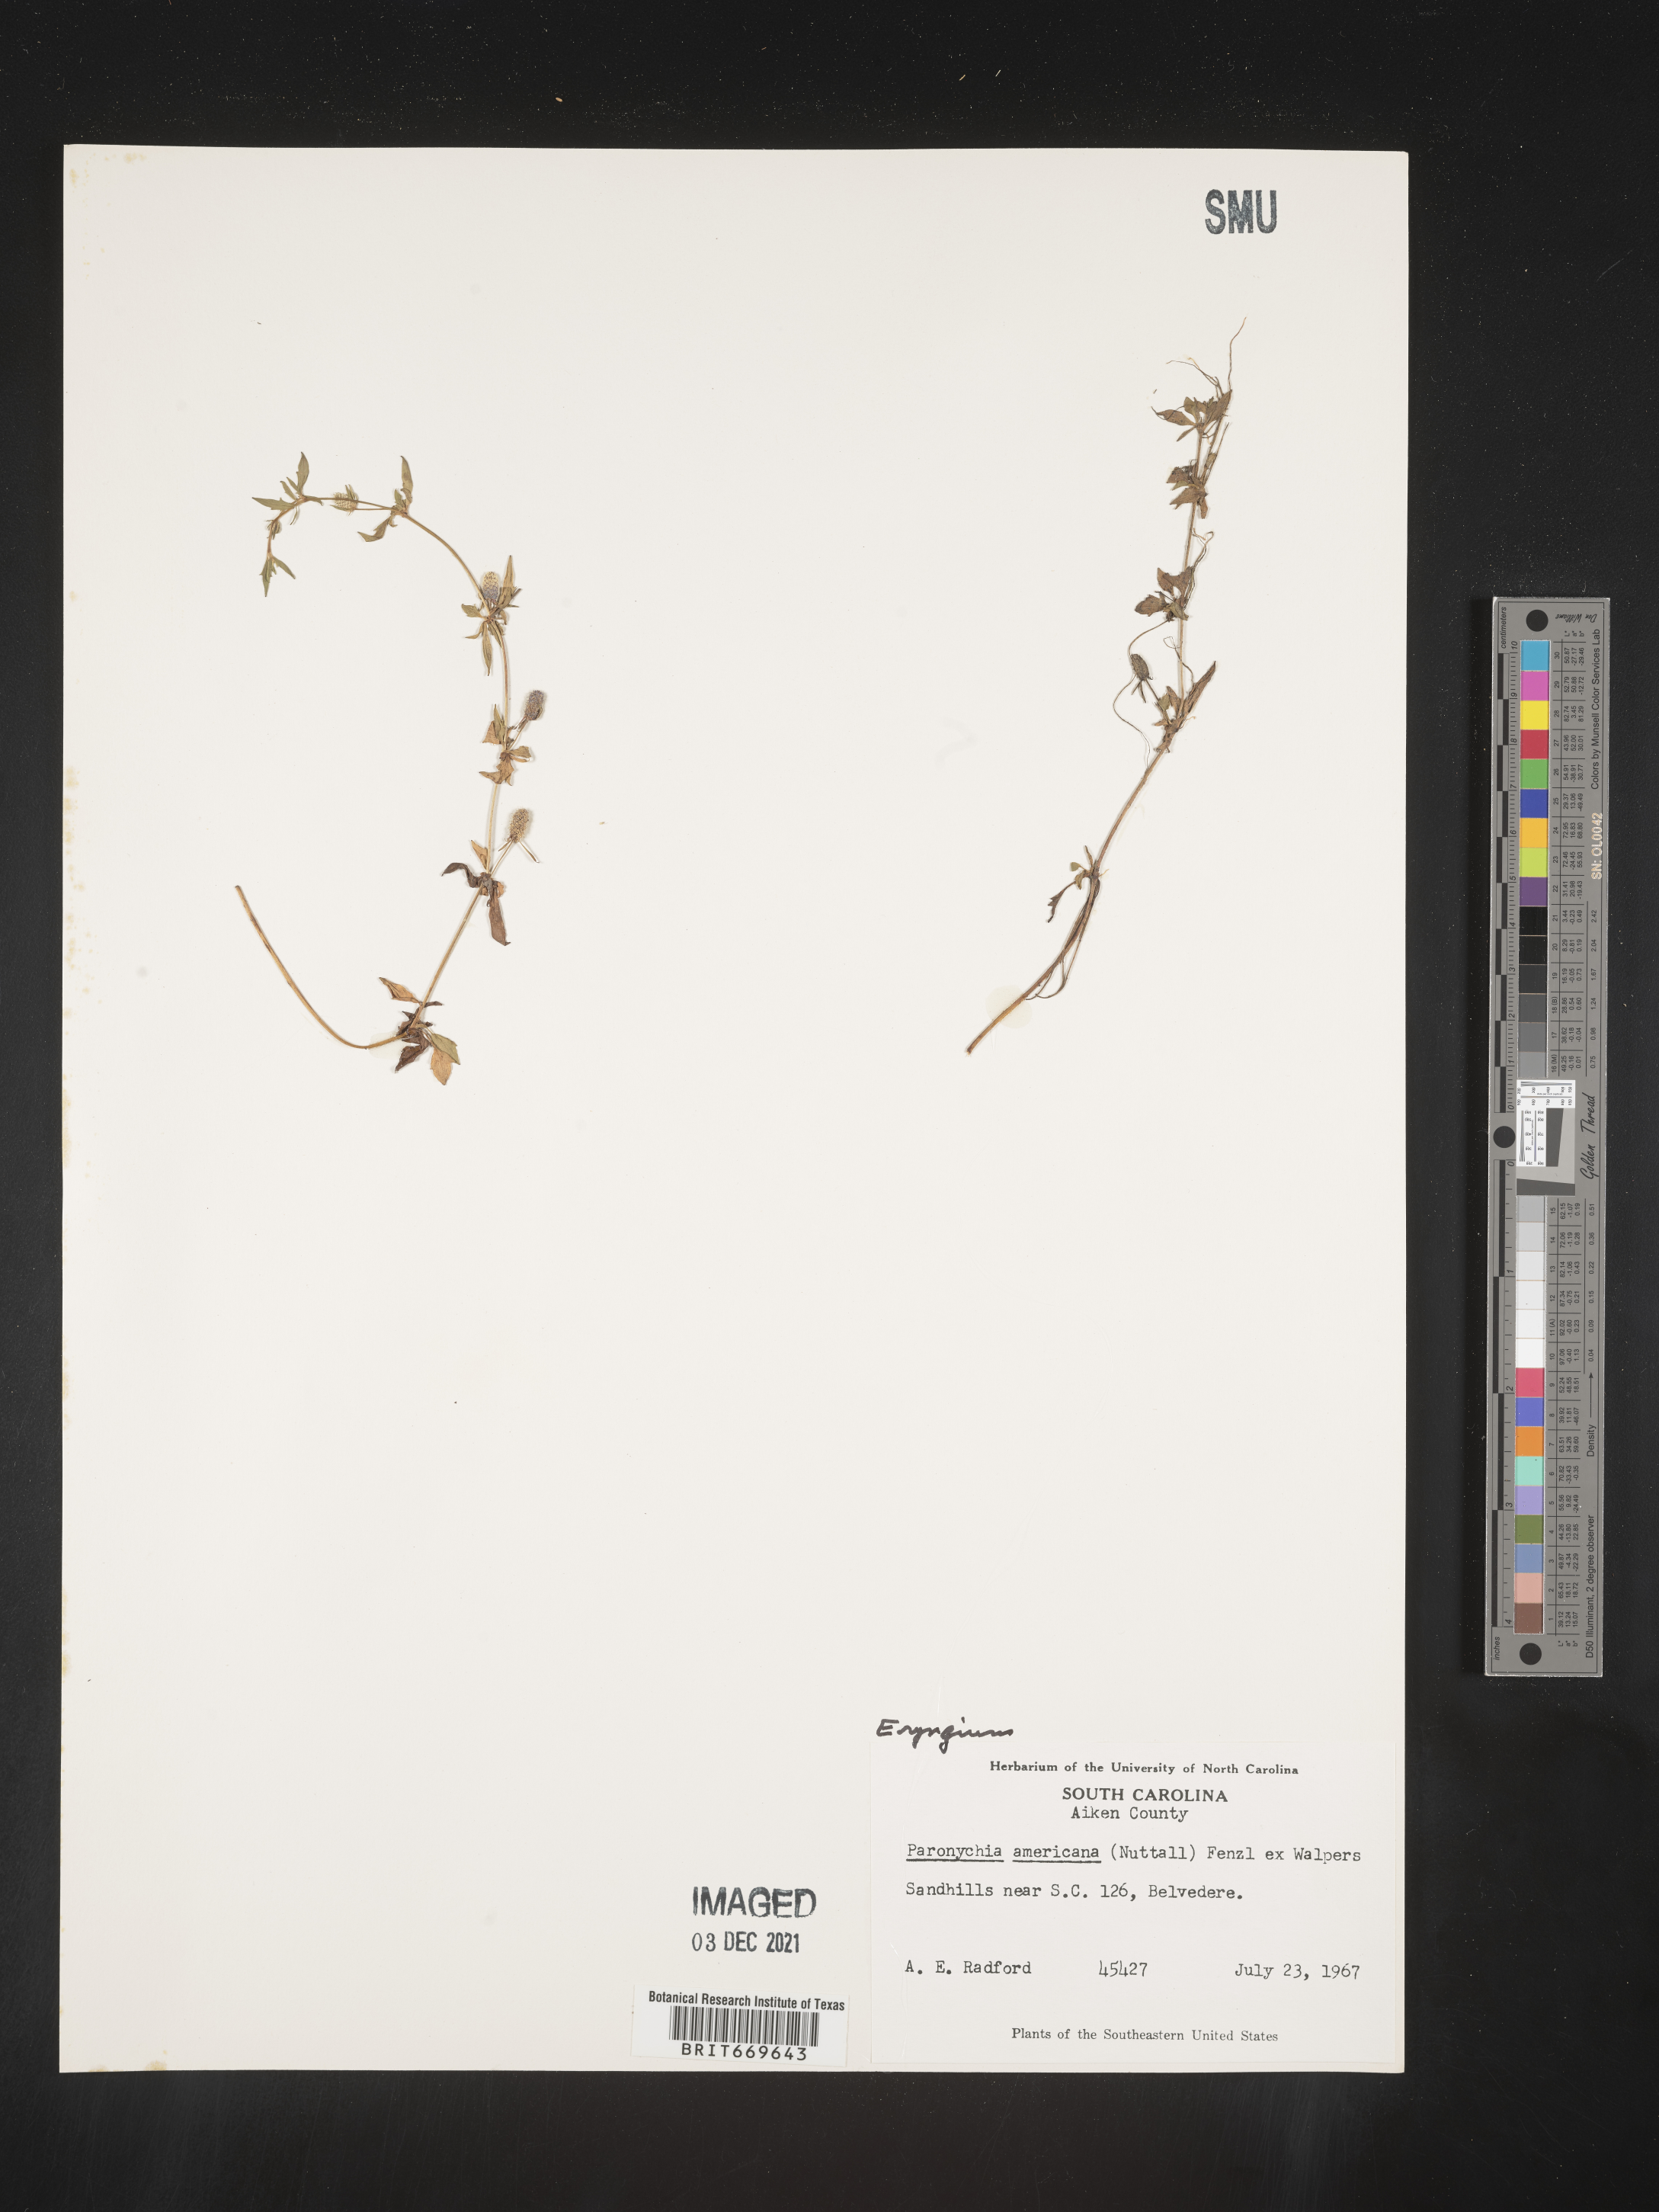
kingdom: Plantae
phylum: Tracheophyta
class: Magnoliopsida
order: Apiales
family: Apiaceae
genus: Eryngium
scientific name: Eryngium
